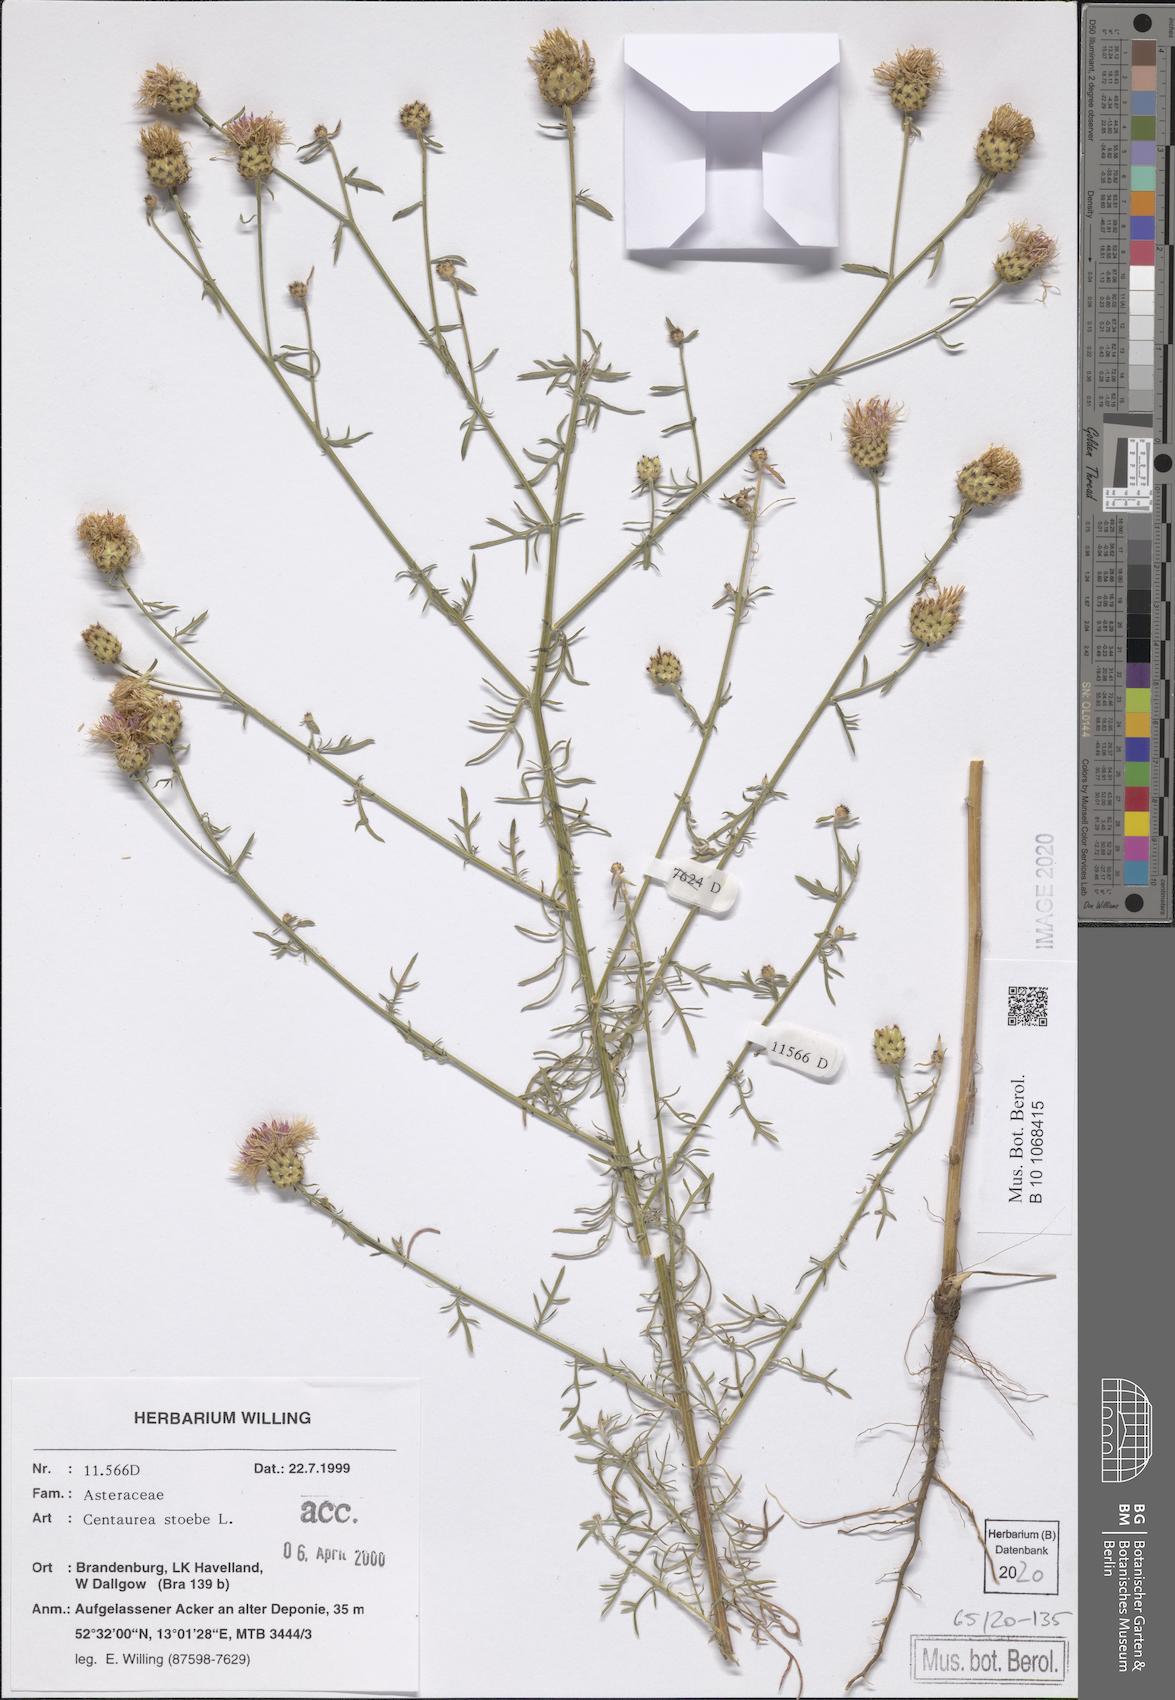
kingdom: Plantae
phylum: Tracheophyta
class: Magnoliopsida
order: Asterales
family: Asteraceae
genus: Centaurea
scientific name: Centaurea stoebe
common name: Spotted knapweed
